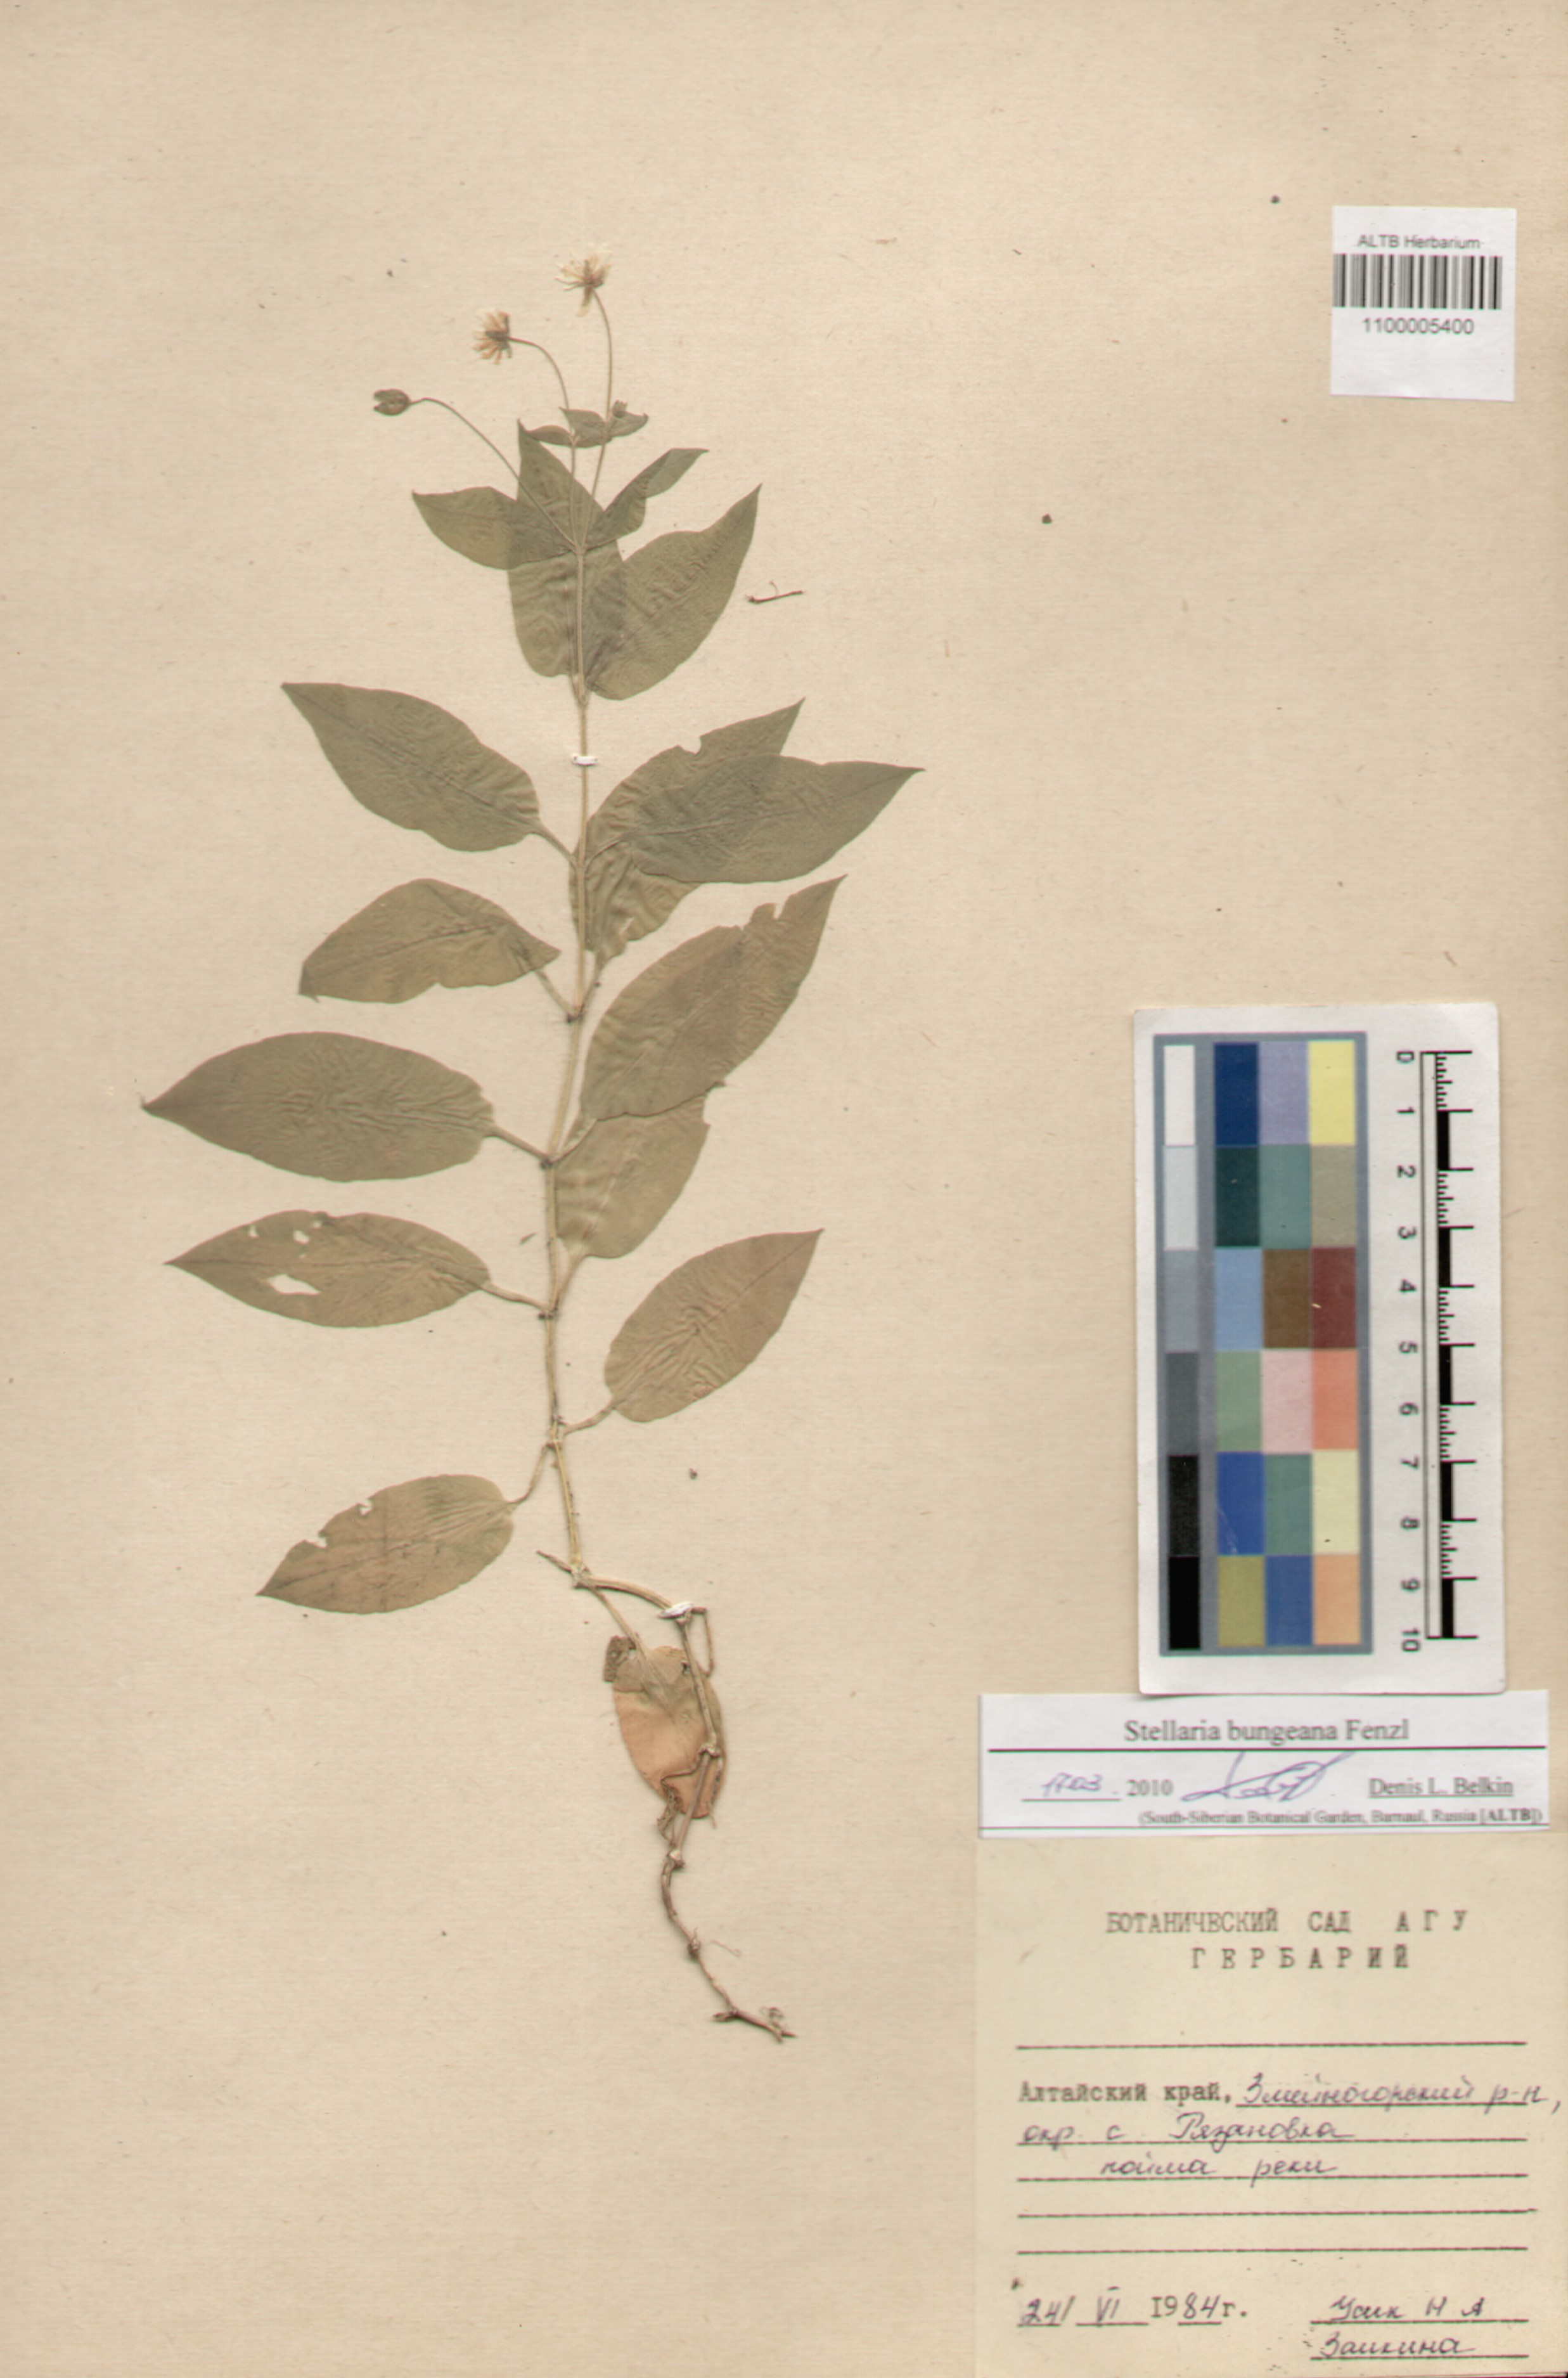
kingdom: Plantae
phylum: Tracheophyta
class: Magnoliopsida
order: Caryophyllales
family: Caryophyllaceae
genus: Stellaria
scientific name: Stellaria bungeana
